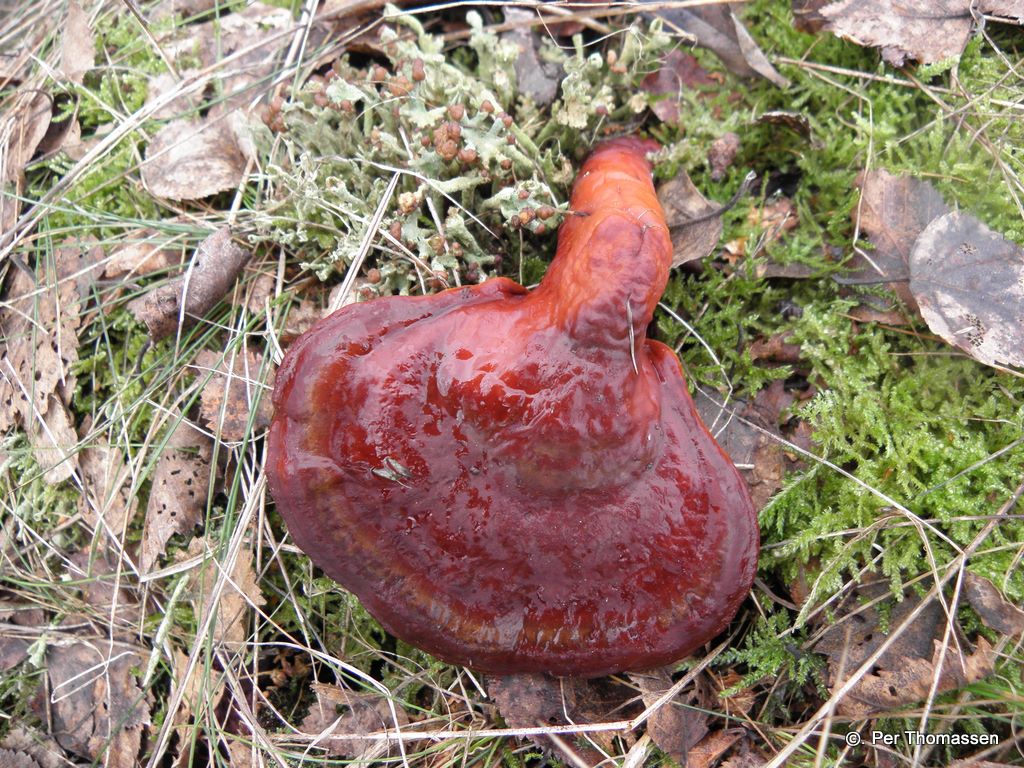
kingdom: Fungi
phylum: Basidiomycota
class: Agaricomycetes
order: Polyporales
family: Polyporaceae
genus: Ganoderma
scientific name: Ganoderma lucidum
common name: skinnende lakporesvamp
